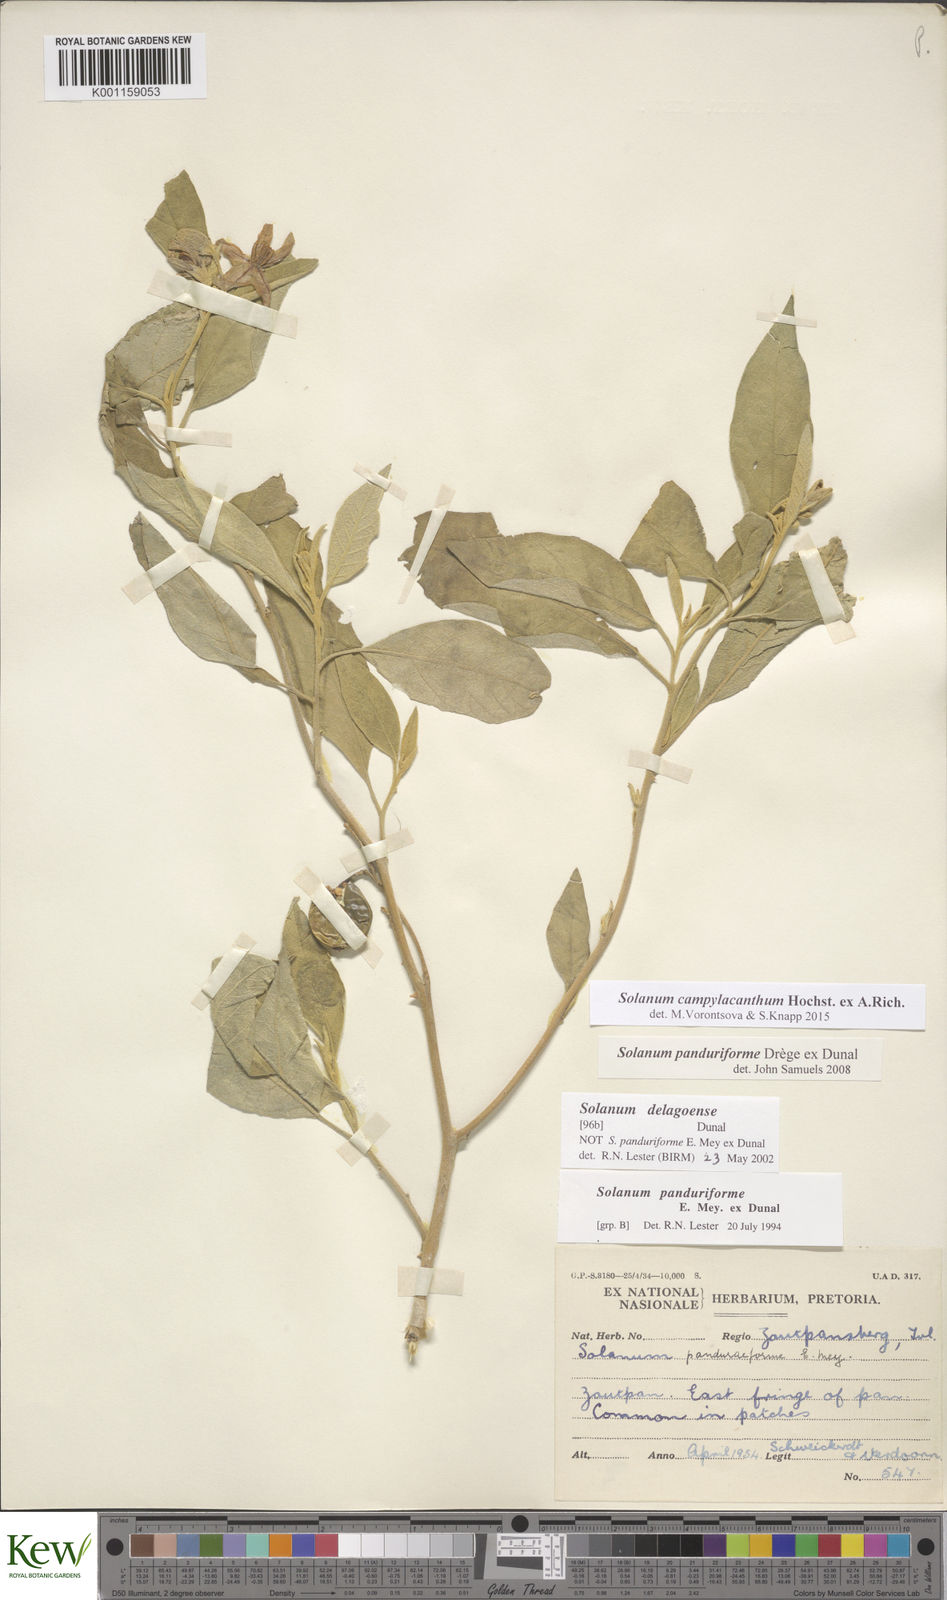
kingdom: Plantae
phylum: Tracheophyta
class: Magnoliopsida
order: Solanales
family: Solanaceae
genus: Solanum
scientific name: Solanum campylacanthum
